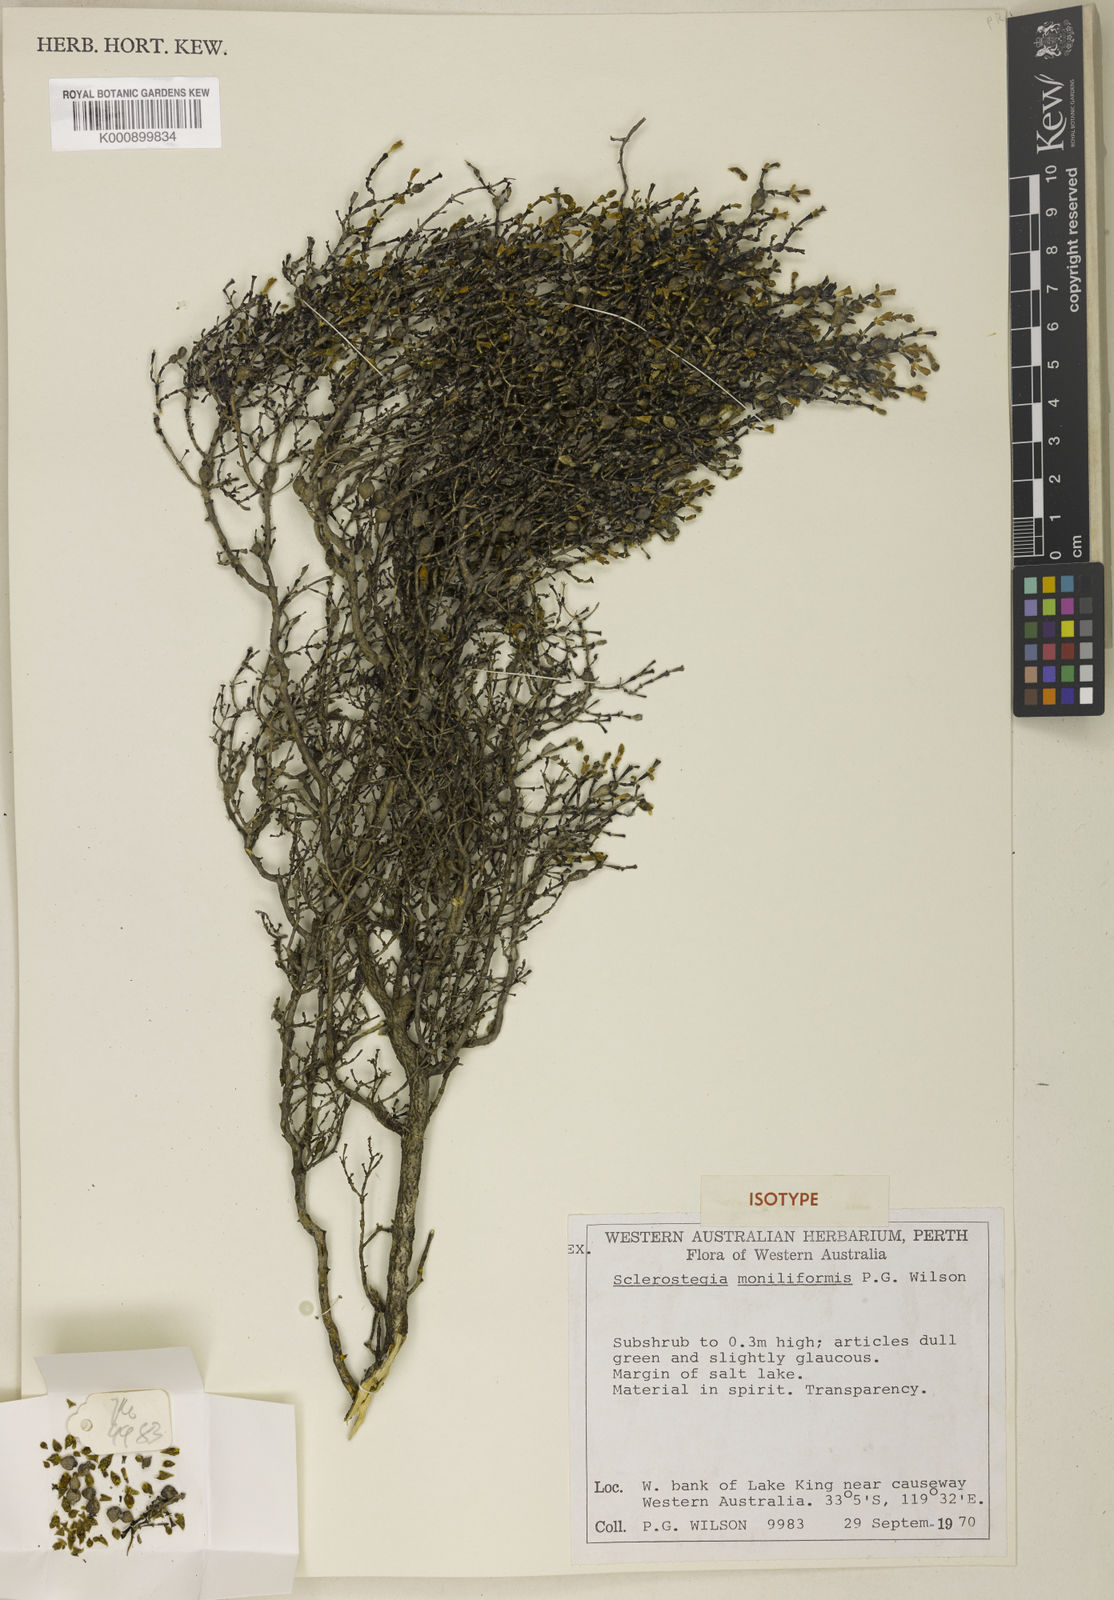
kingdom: Plantae
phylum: Tracheophyta
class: Magnoliopsida
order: Caryophyllales
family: Amaranthaceae
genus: Tecticornia
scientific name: Tecticornia moniliformis
